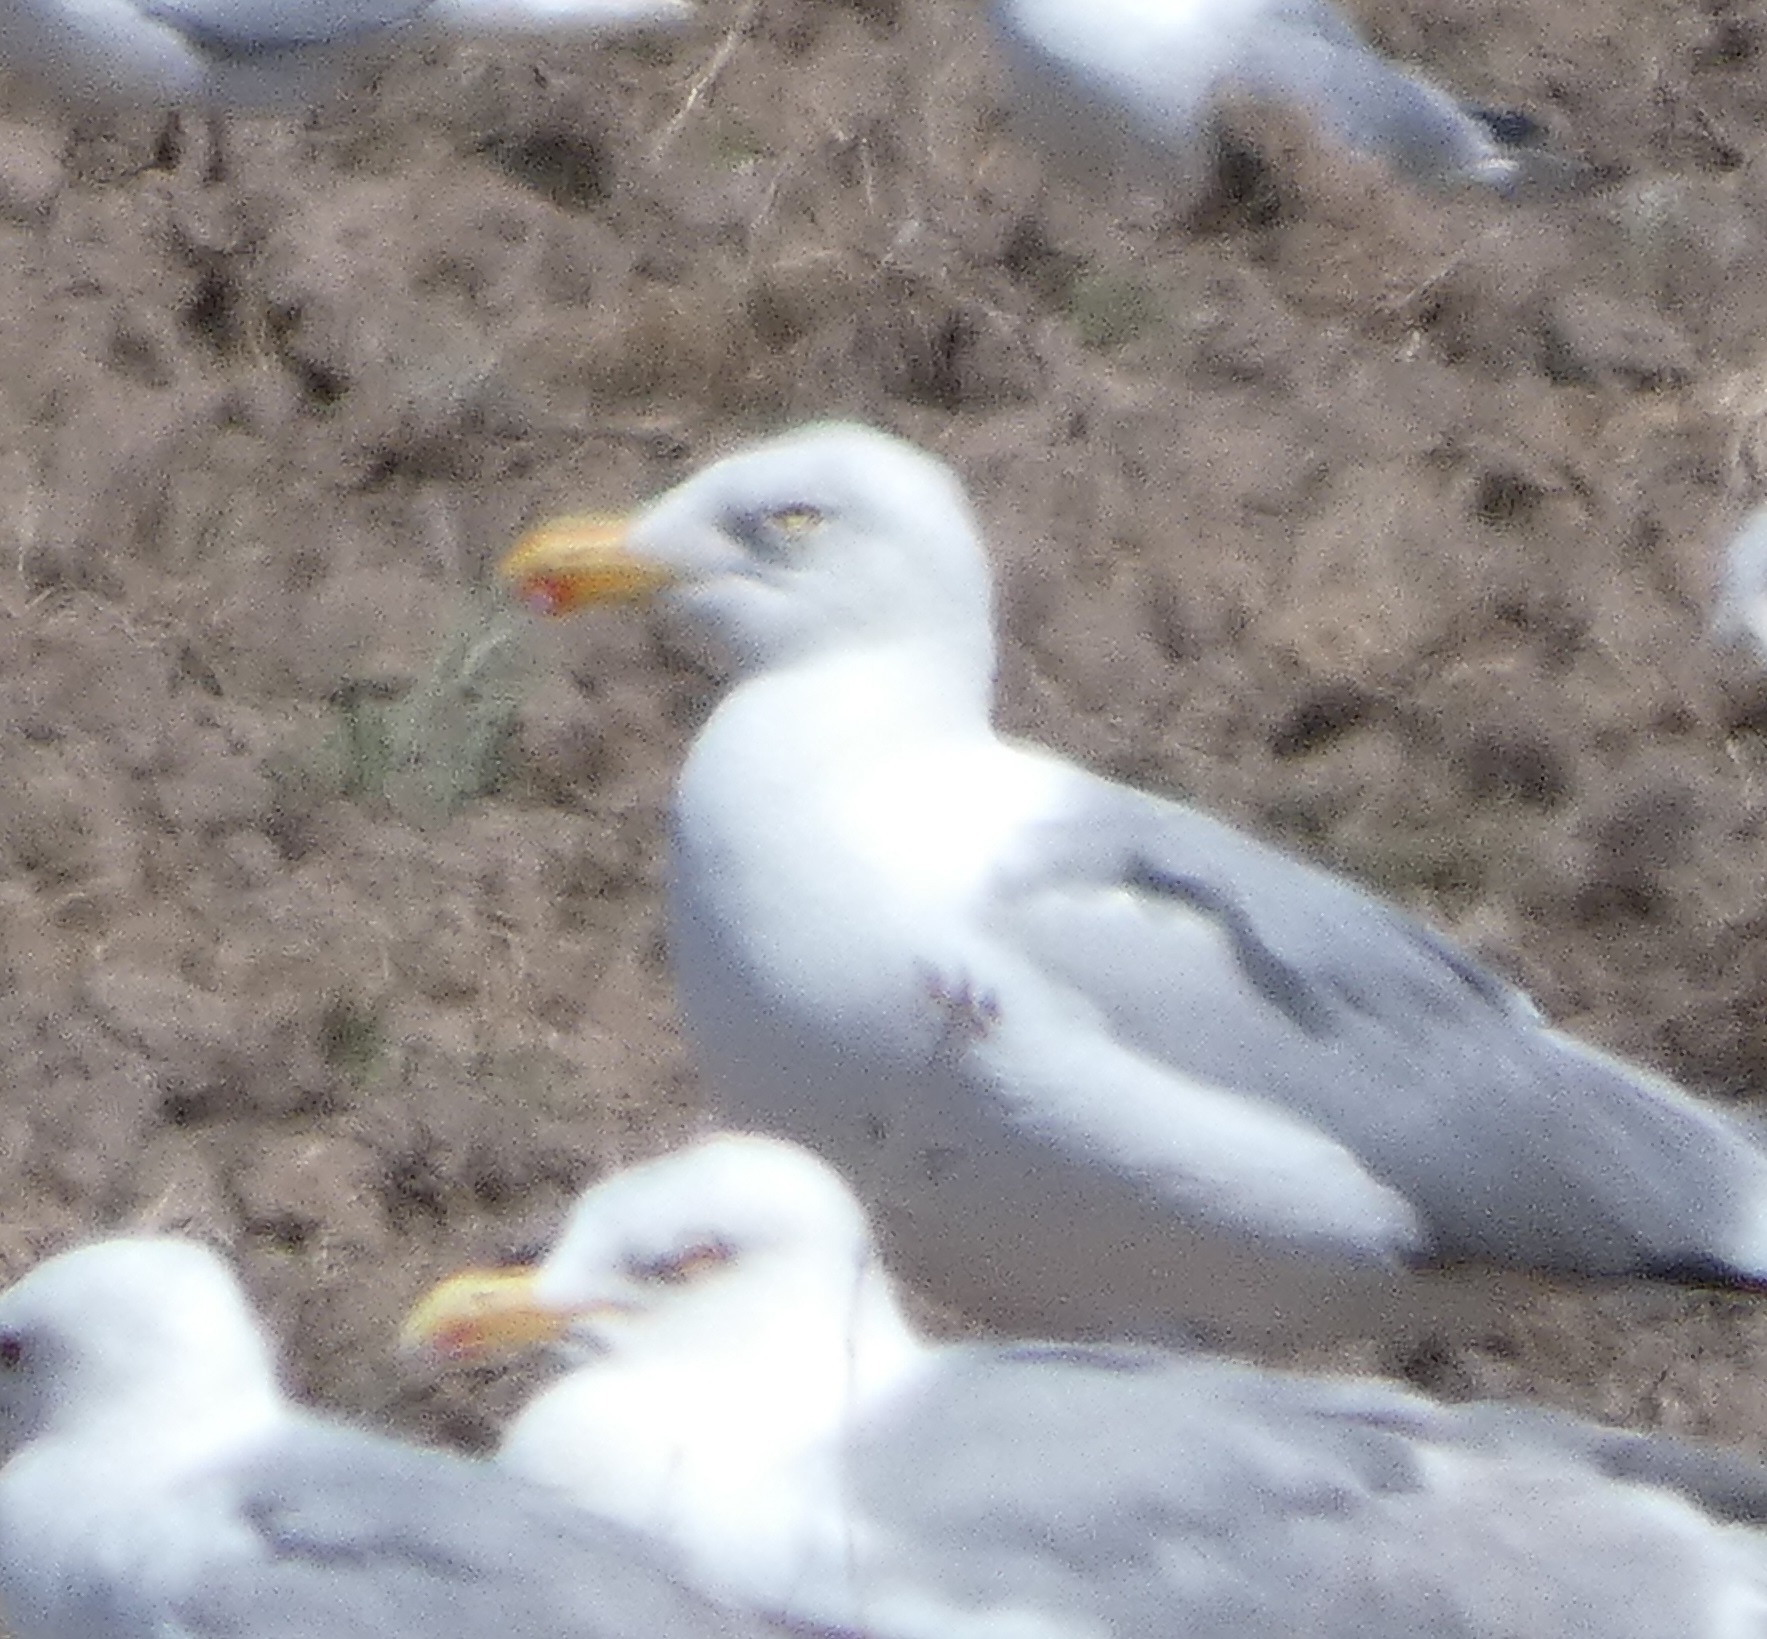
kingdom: Animalia
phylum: Chordata
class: Aves
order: Charadriiformes
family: Laridae
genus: Larus
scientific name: Larus argentatus
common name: Sølvmåge
